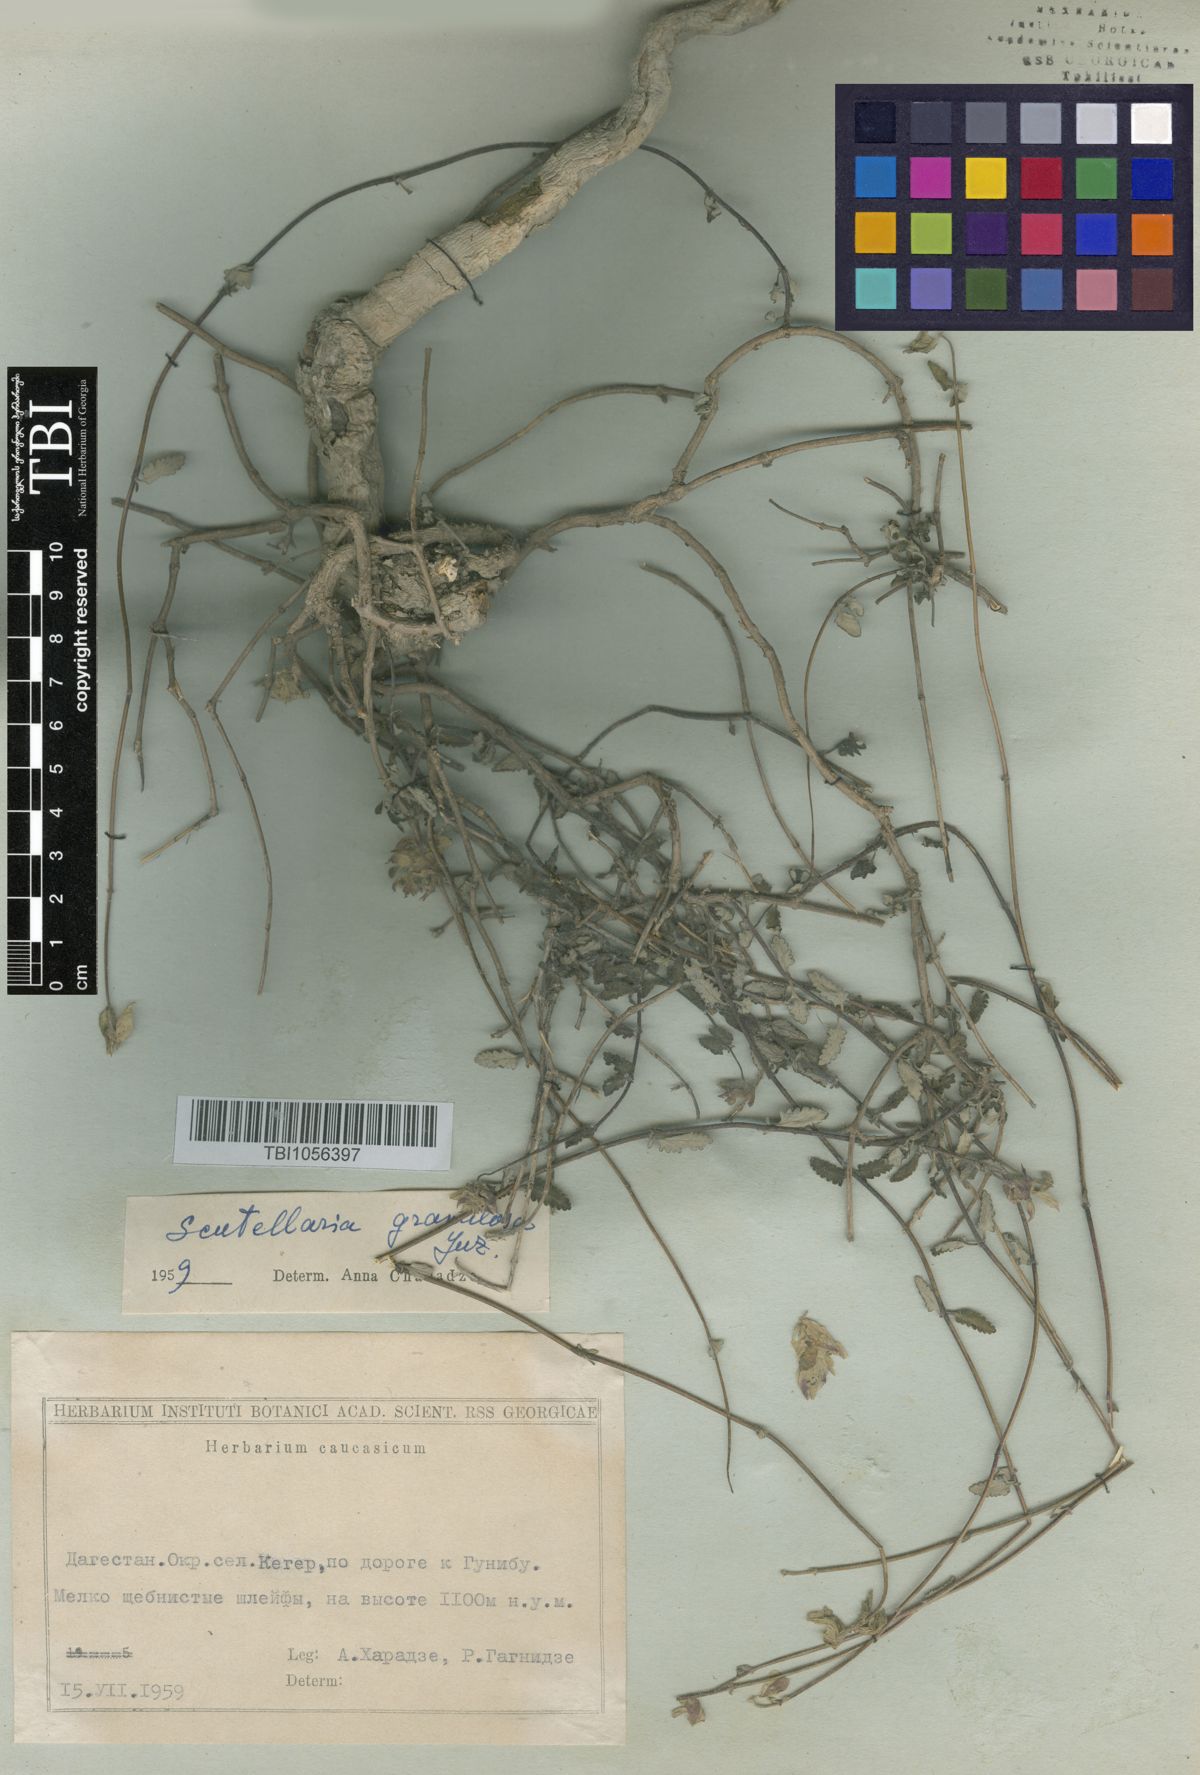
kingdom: Plantae
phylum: Tracheophyta
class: Magnoliopsida
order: Lamiales
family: Lamiaceae
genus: Scutellaria
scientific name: Scutellaria granulosa
